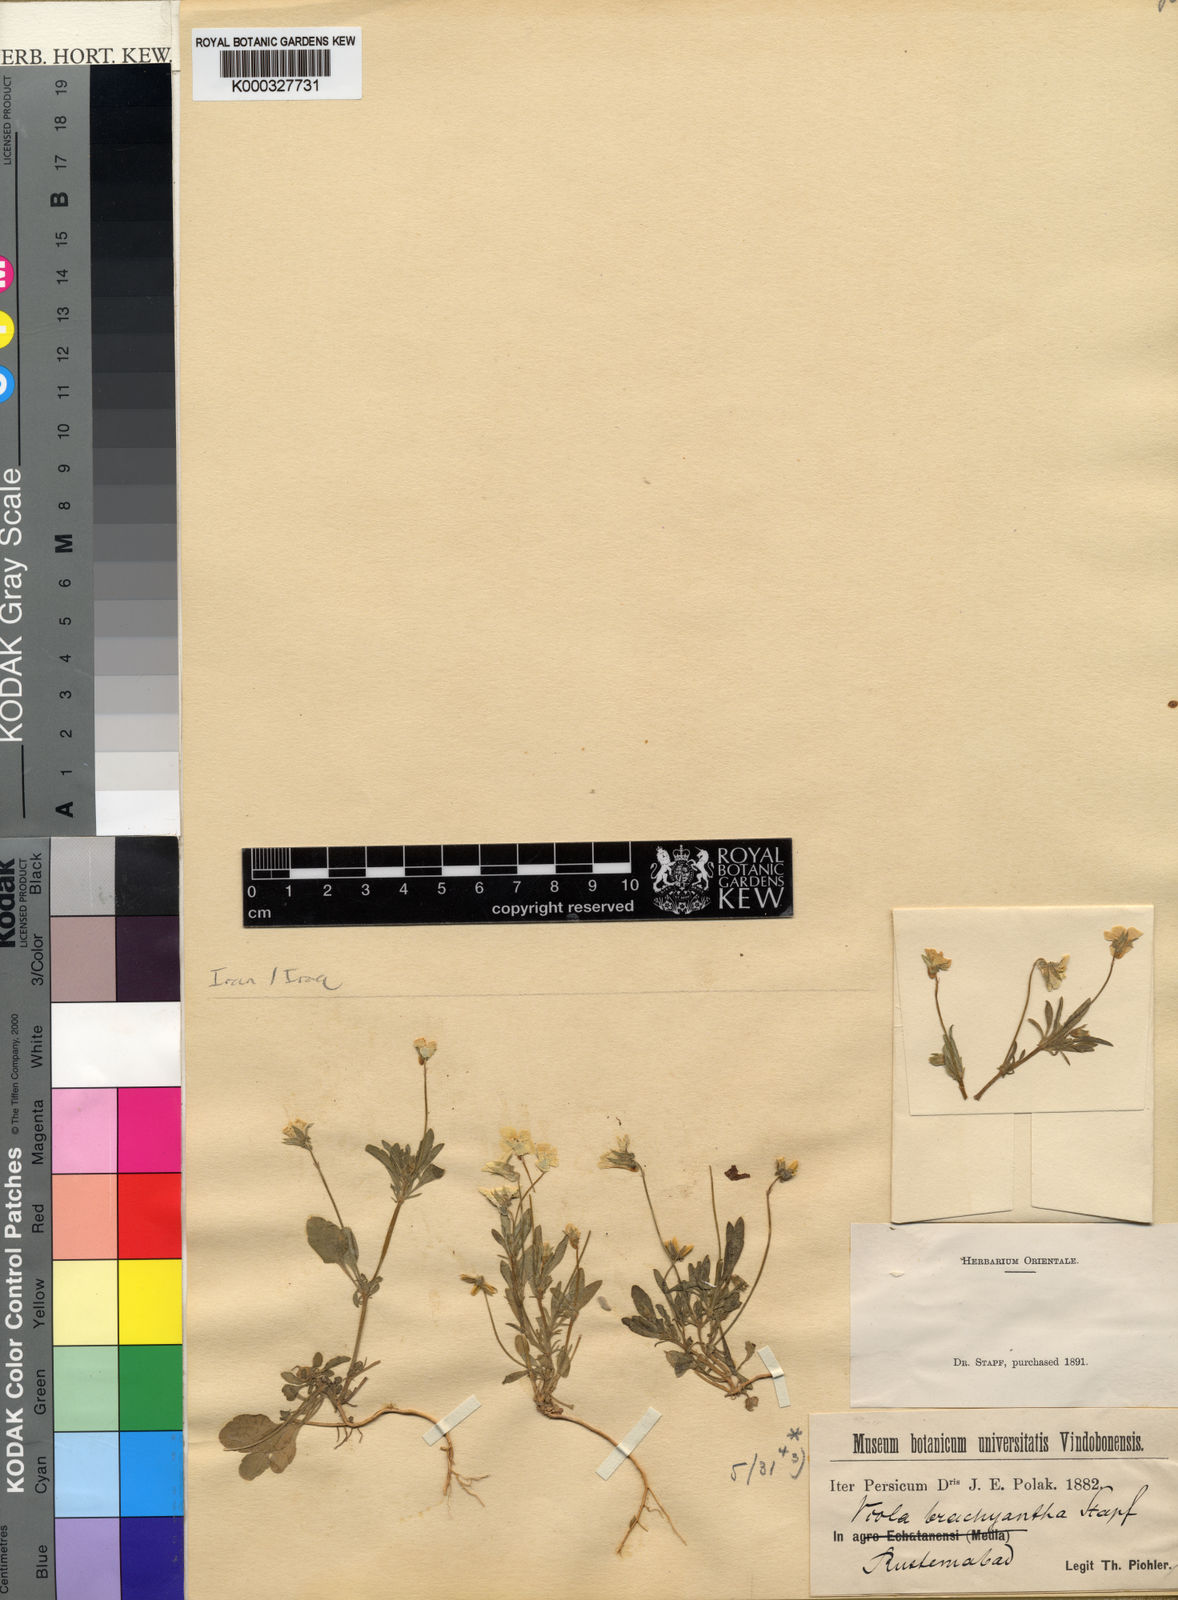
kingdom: Plantae
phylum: Tracheophyta
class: Magnoliopsida
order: Malpighiales
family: Violaceae
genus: Viola
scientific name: Viola hymettia
